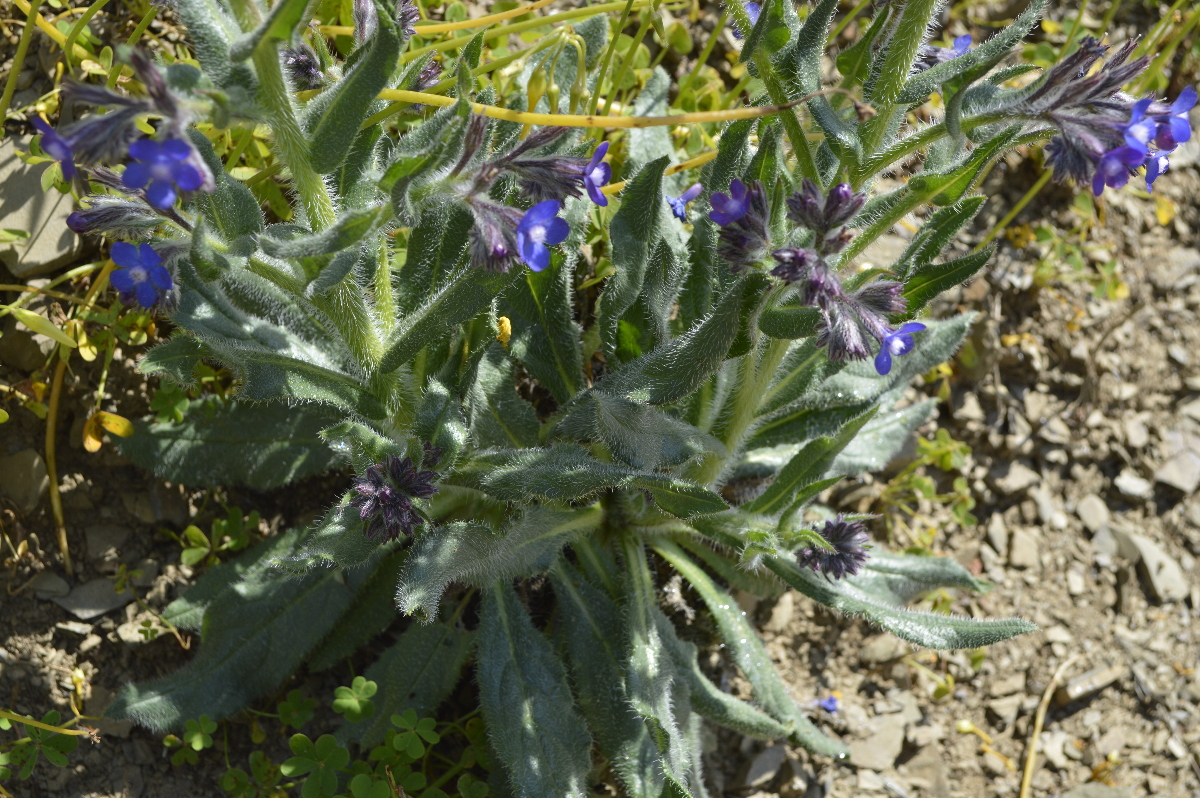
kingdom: Plantae
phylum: Tracheophyta
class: Magnoliopsida
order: Boraginales
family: Boraginaceae
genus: Anchusa
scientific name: Anchusa azurea
